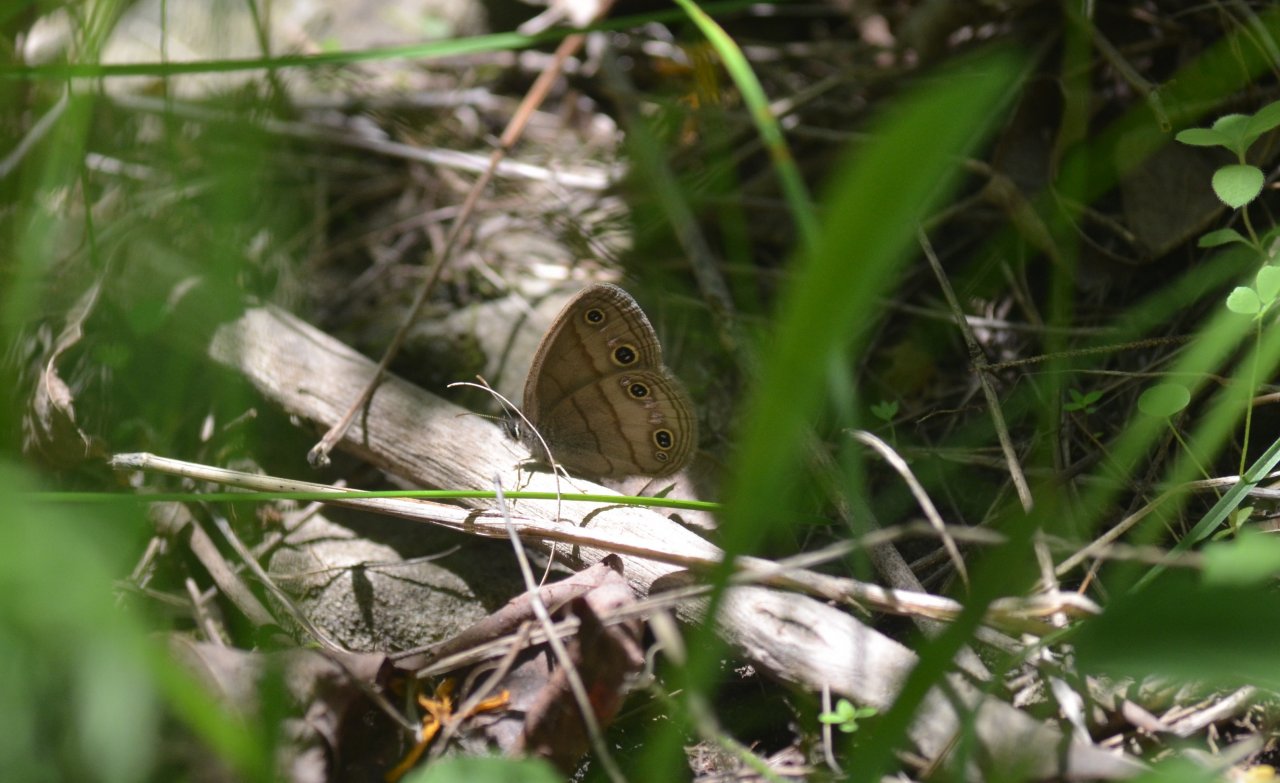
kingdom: Animalia
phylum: Arthropoda
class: Insecta
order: Lepidoptera
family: Nymphalidae
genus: Euptychia
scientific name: Euptychia cymela
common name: Little Wood Satyr
